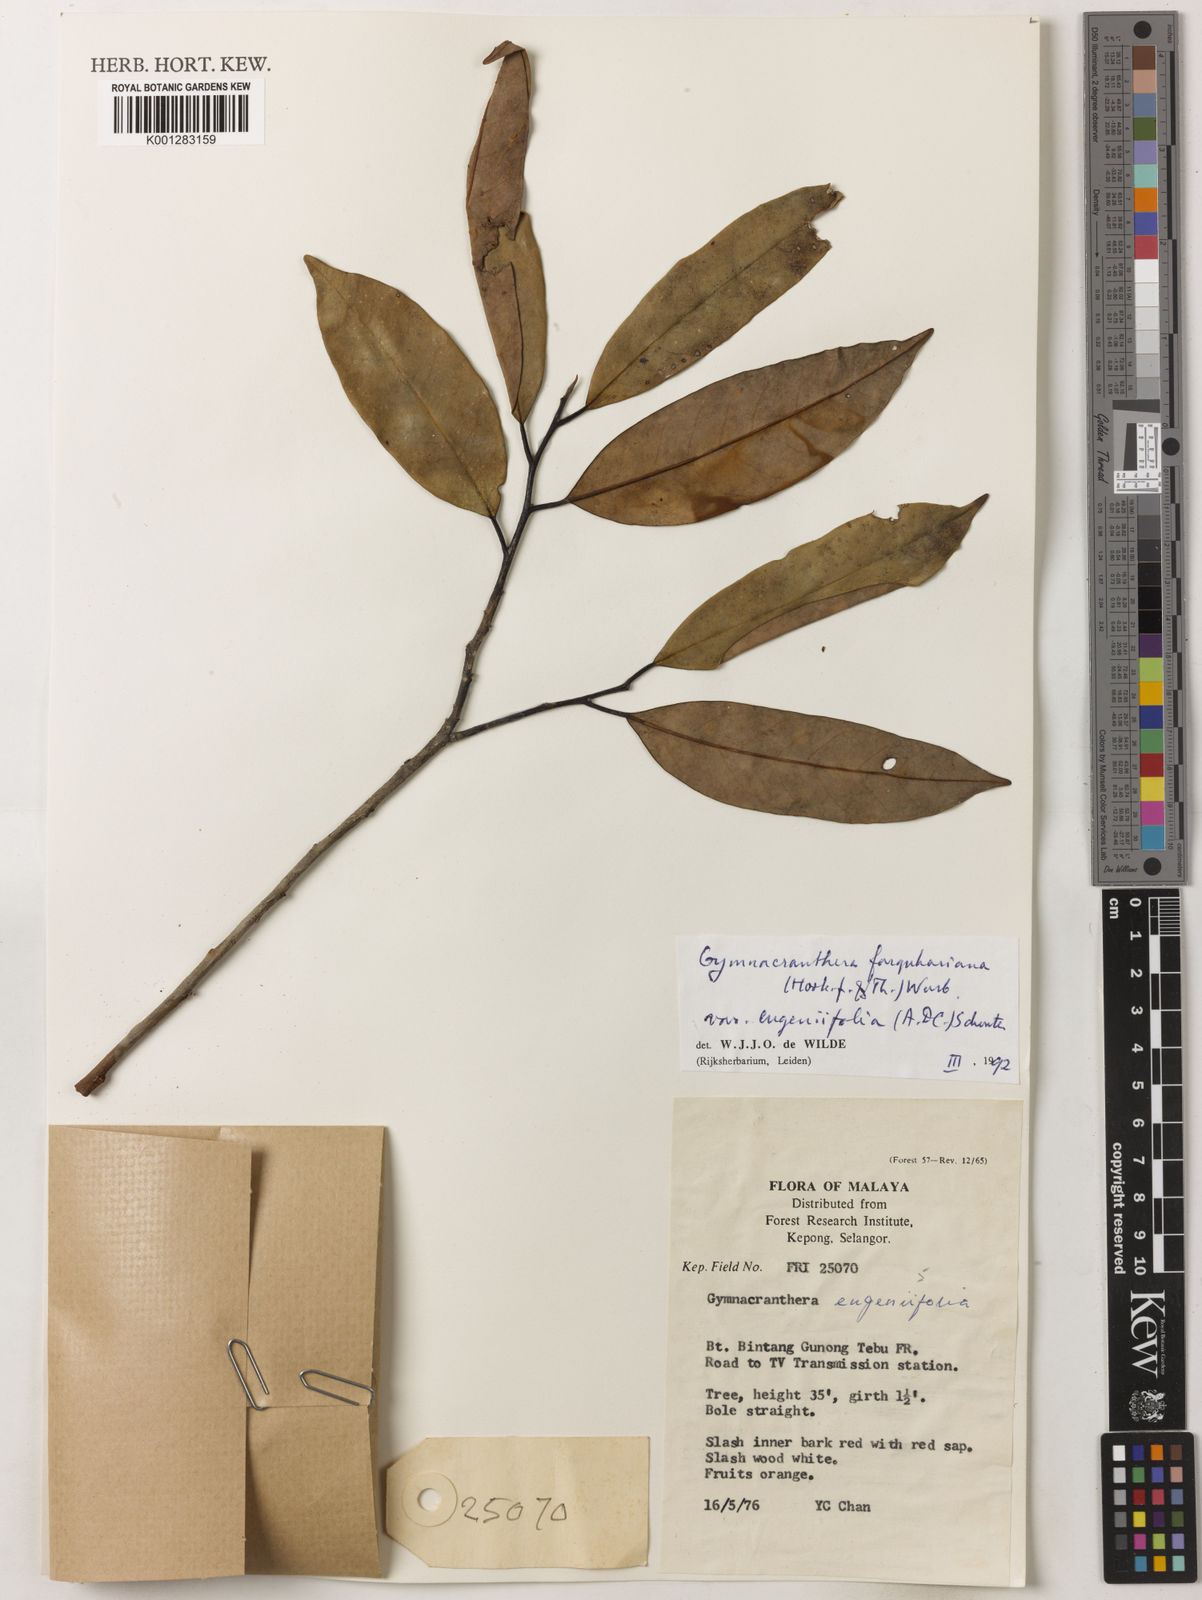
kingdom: Plantae
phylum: Tracheophyta
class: Magnoliopsida
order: Magnoliales
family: Myristicaceae
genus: Gymnacranthera
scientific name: Gymnacranthera farquhariana
